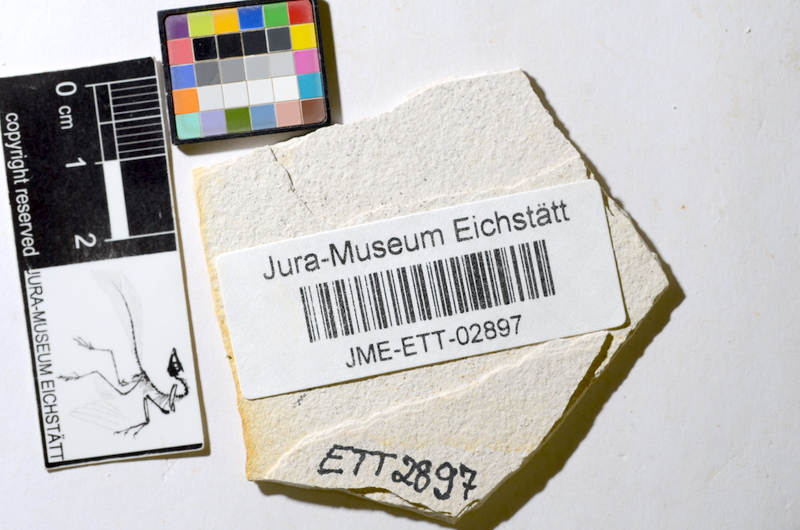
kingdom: Animalia
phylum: Chordata
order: Salmoniformes
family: Orthogonikleithridae
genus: Orthogonikleithrus
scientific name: Orthogonikleithrus hoelli
